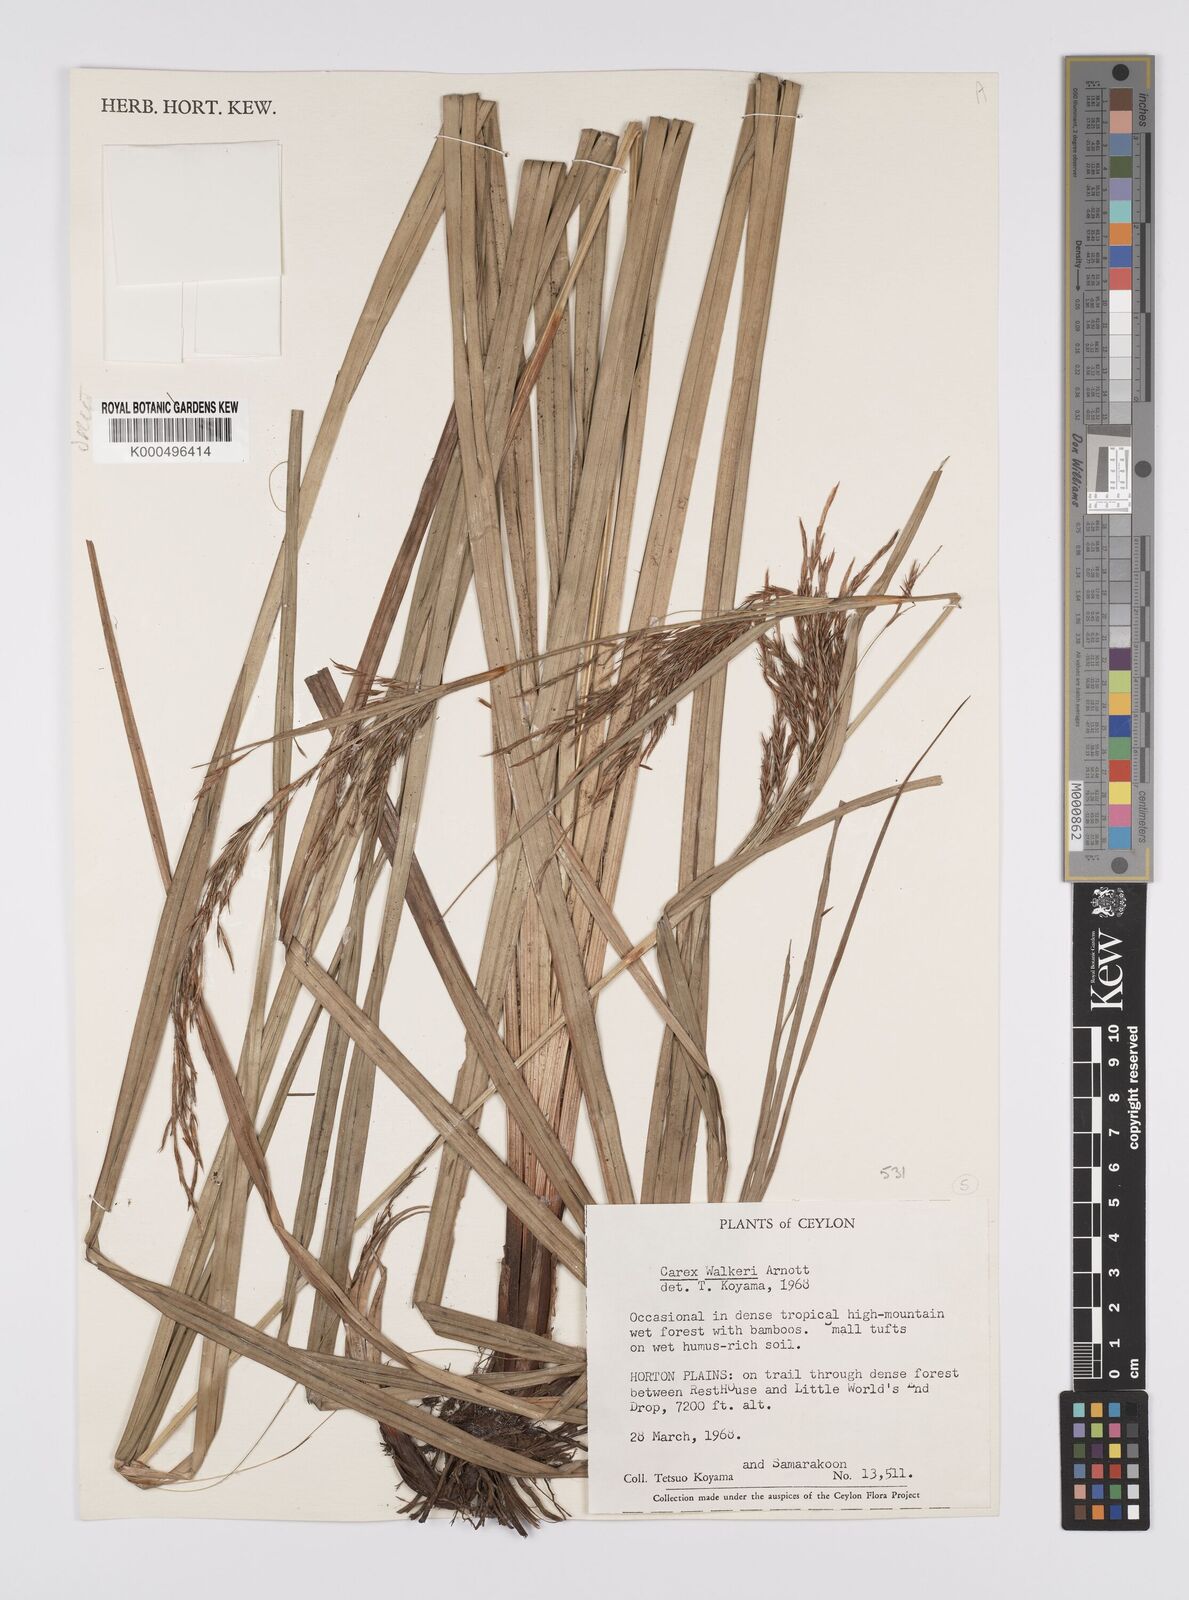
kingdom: Plantae
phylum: Tracheophyta
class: Liliopsida
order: Poales
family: Cyperaceae
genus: Carex
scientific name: Carex walkeri
